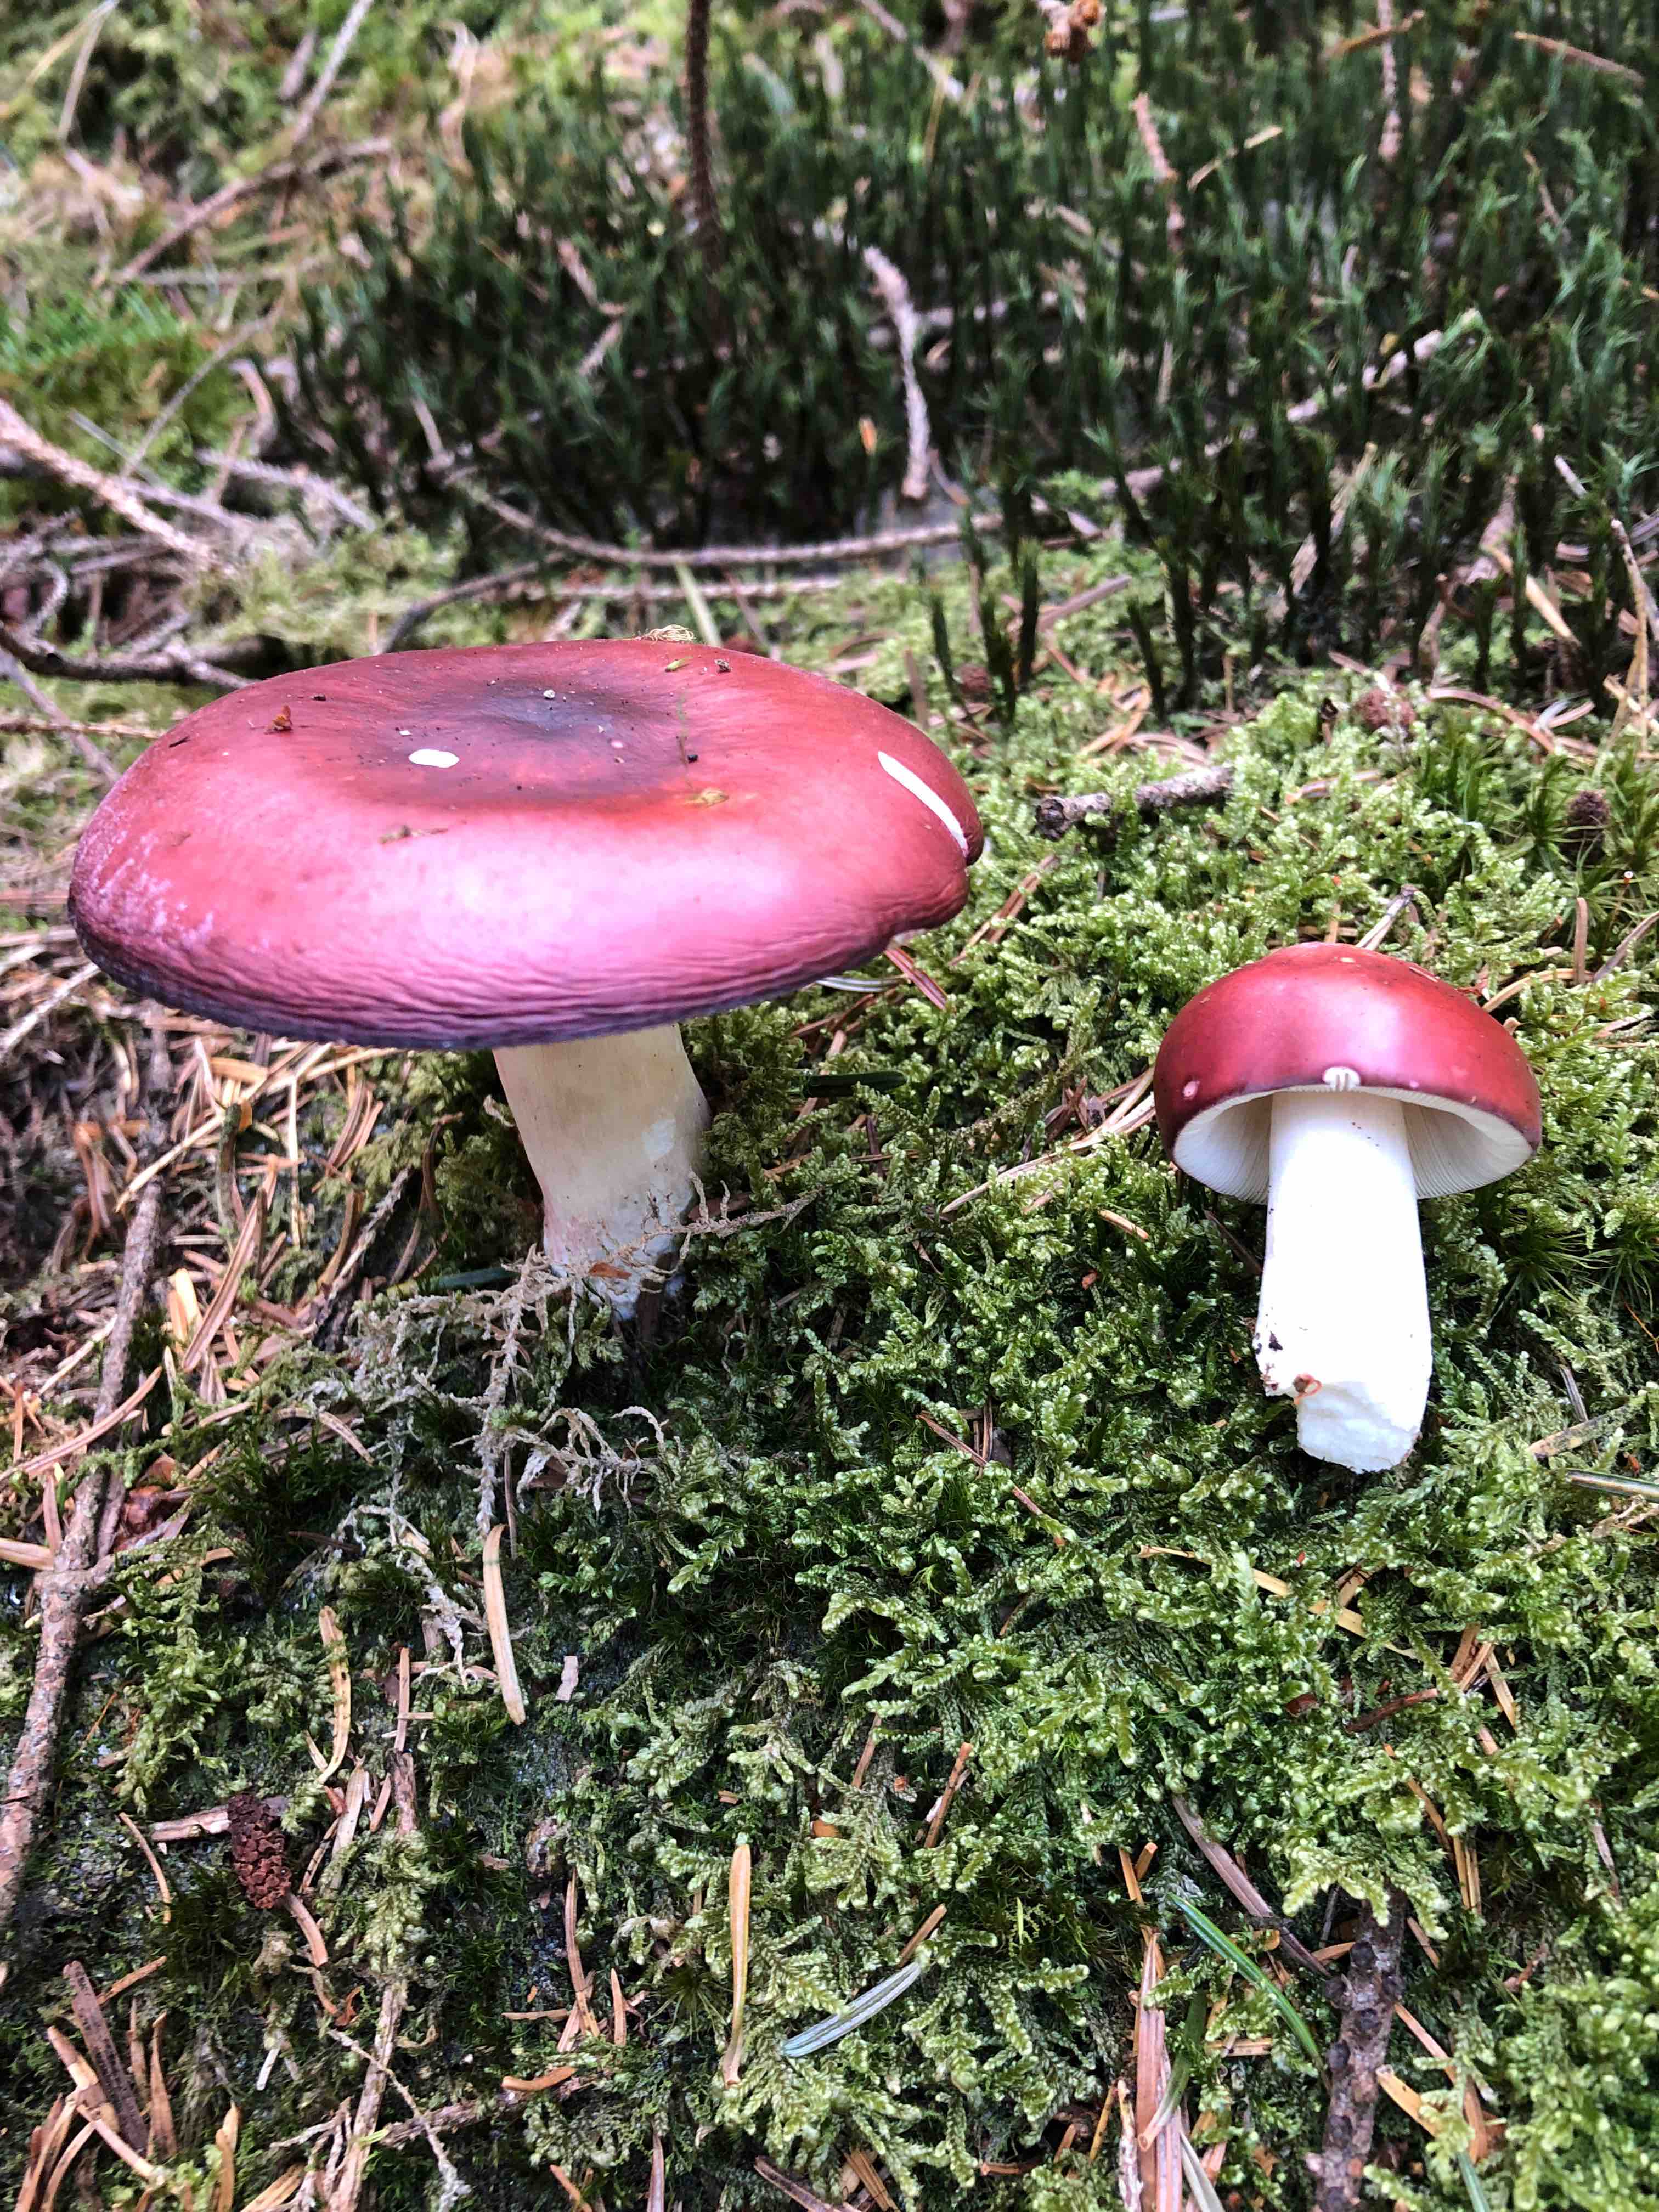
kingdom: Fungi
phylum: Basidiomycota
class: Agaricomycetes
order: Russulales
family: Russulaceae
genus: Russula
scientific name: Russula paludosa
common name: prægtig skørhat
